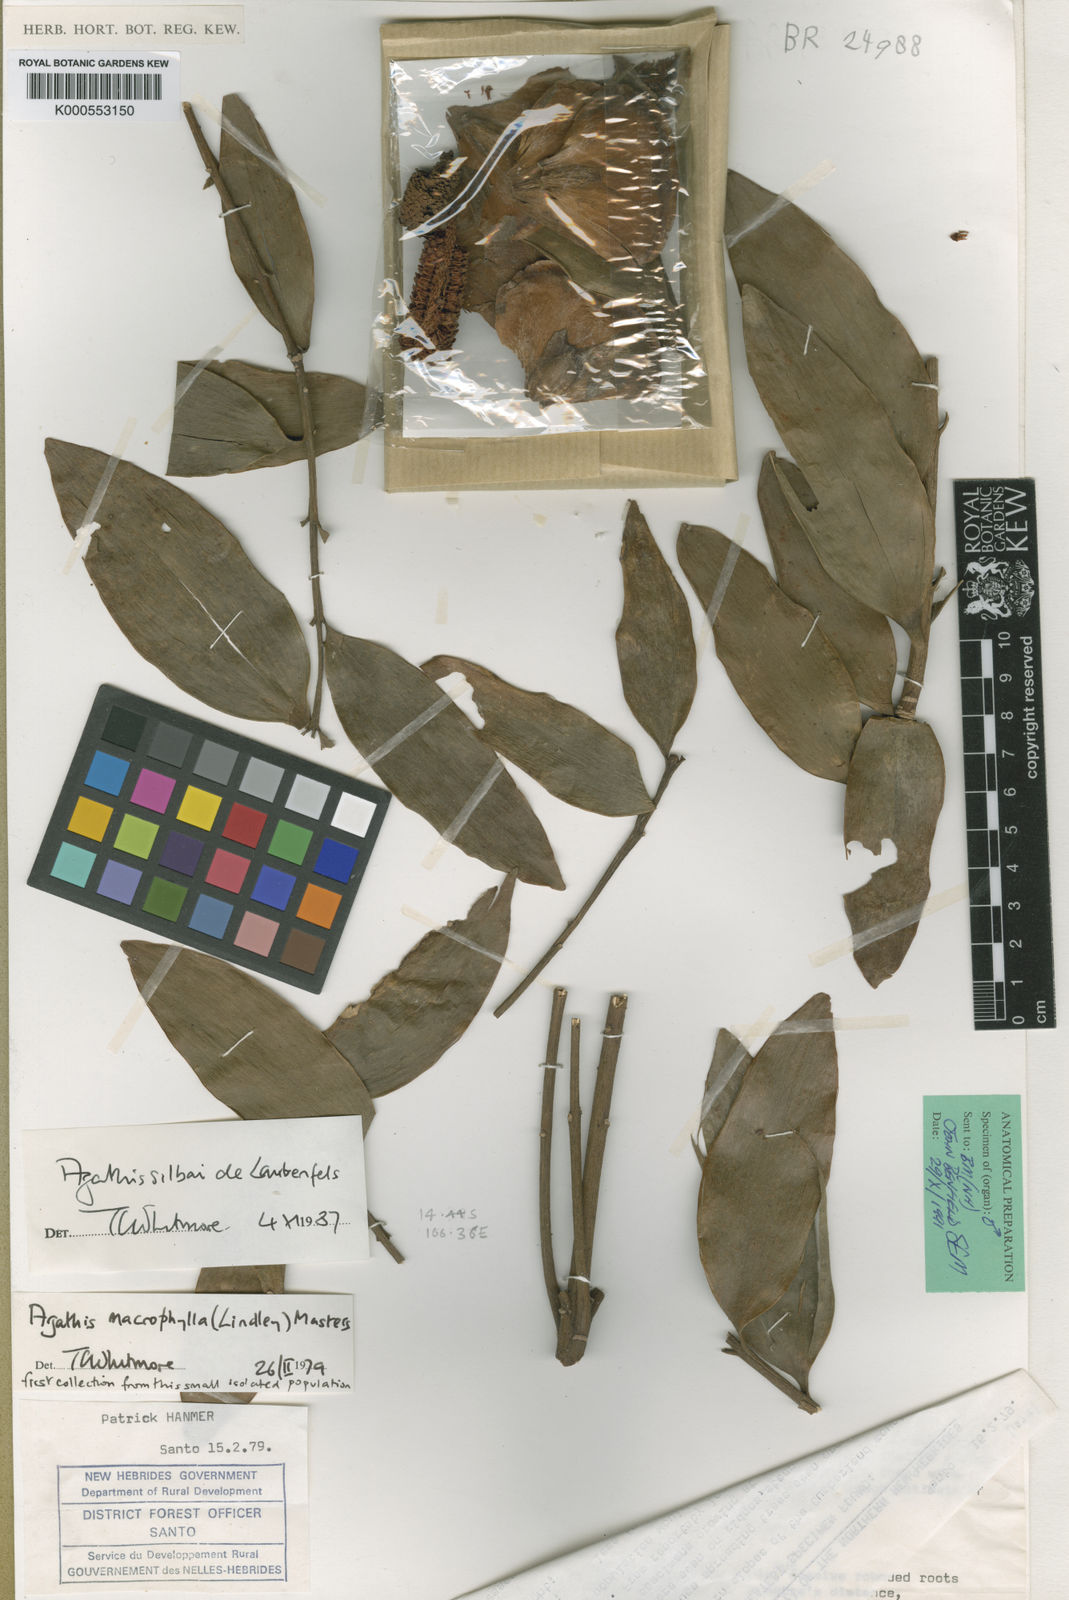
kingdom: Plantae
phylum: Tracheophyta
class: Pinopsida
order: Pinales
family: Araucariaceae
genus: Agathis
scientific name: Agathis silbae
